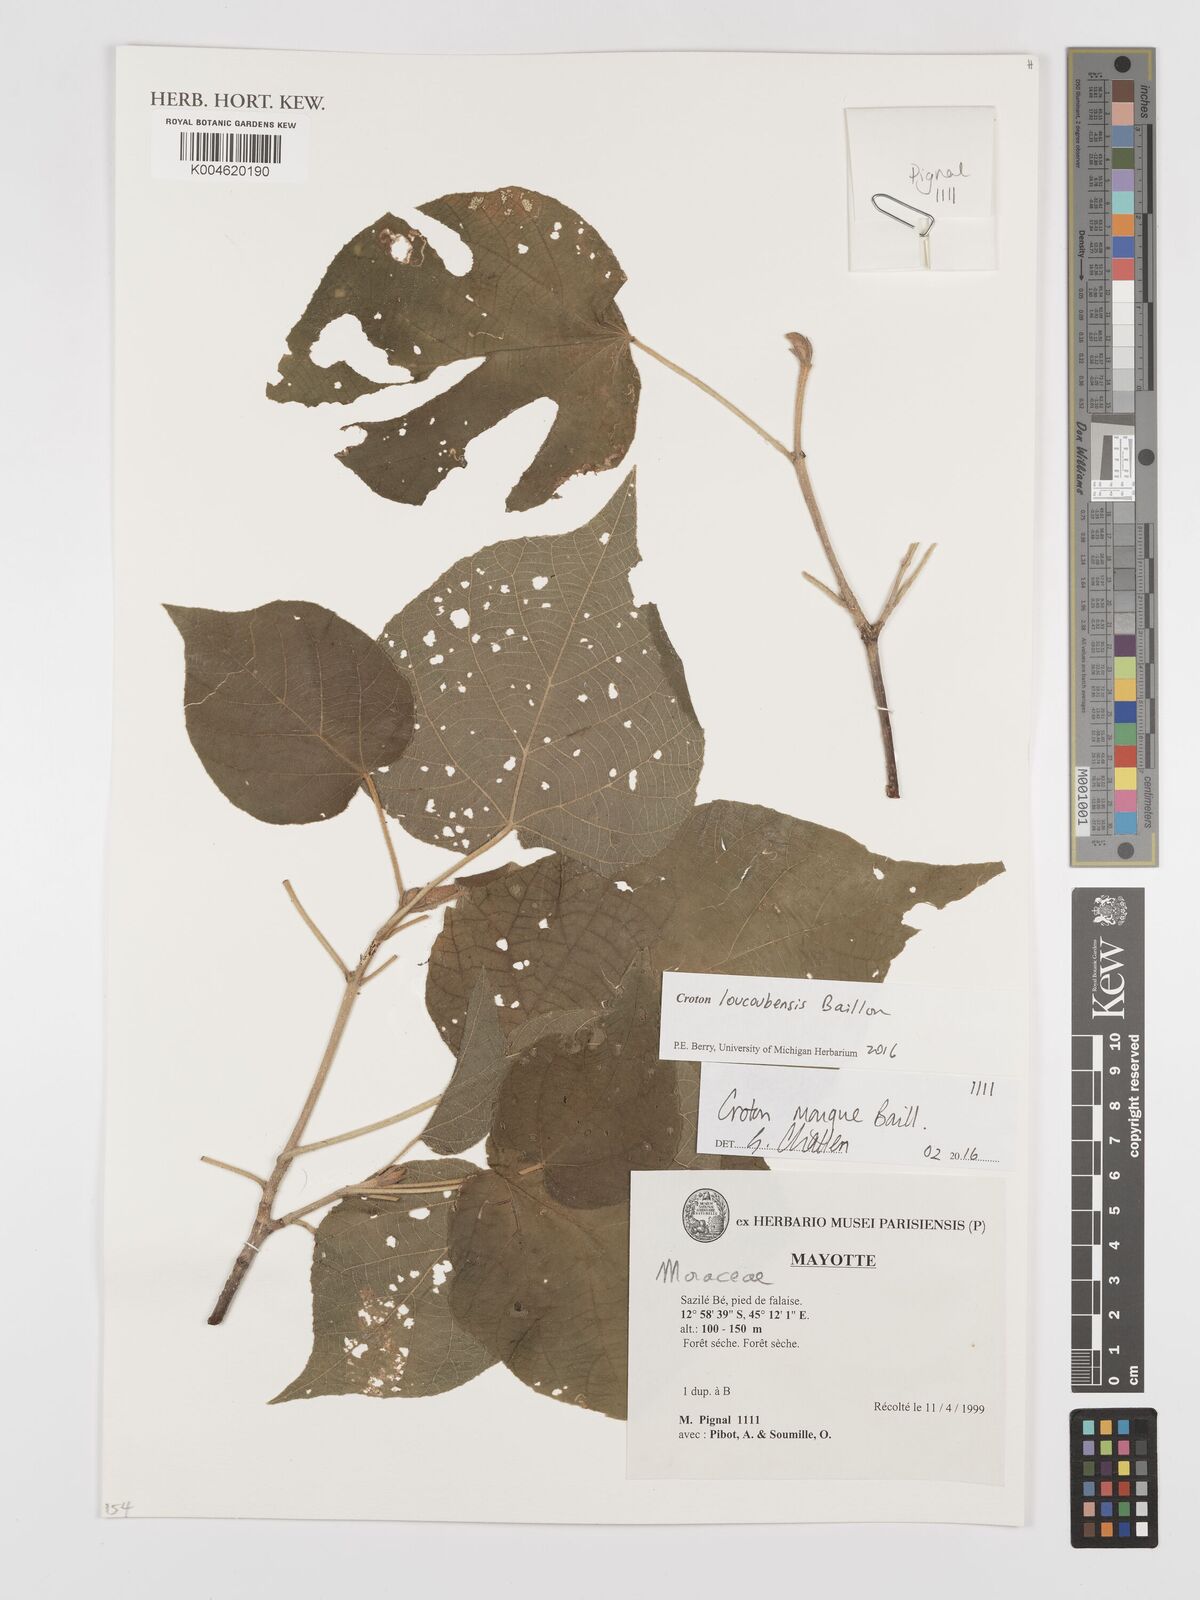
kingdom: Plantae
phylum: Tracheophyta
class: Magnoliopsida
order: Malpighiales
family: Euphorbiaceae
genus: Croton
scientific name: Croton loucoubensis
